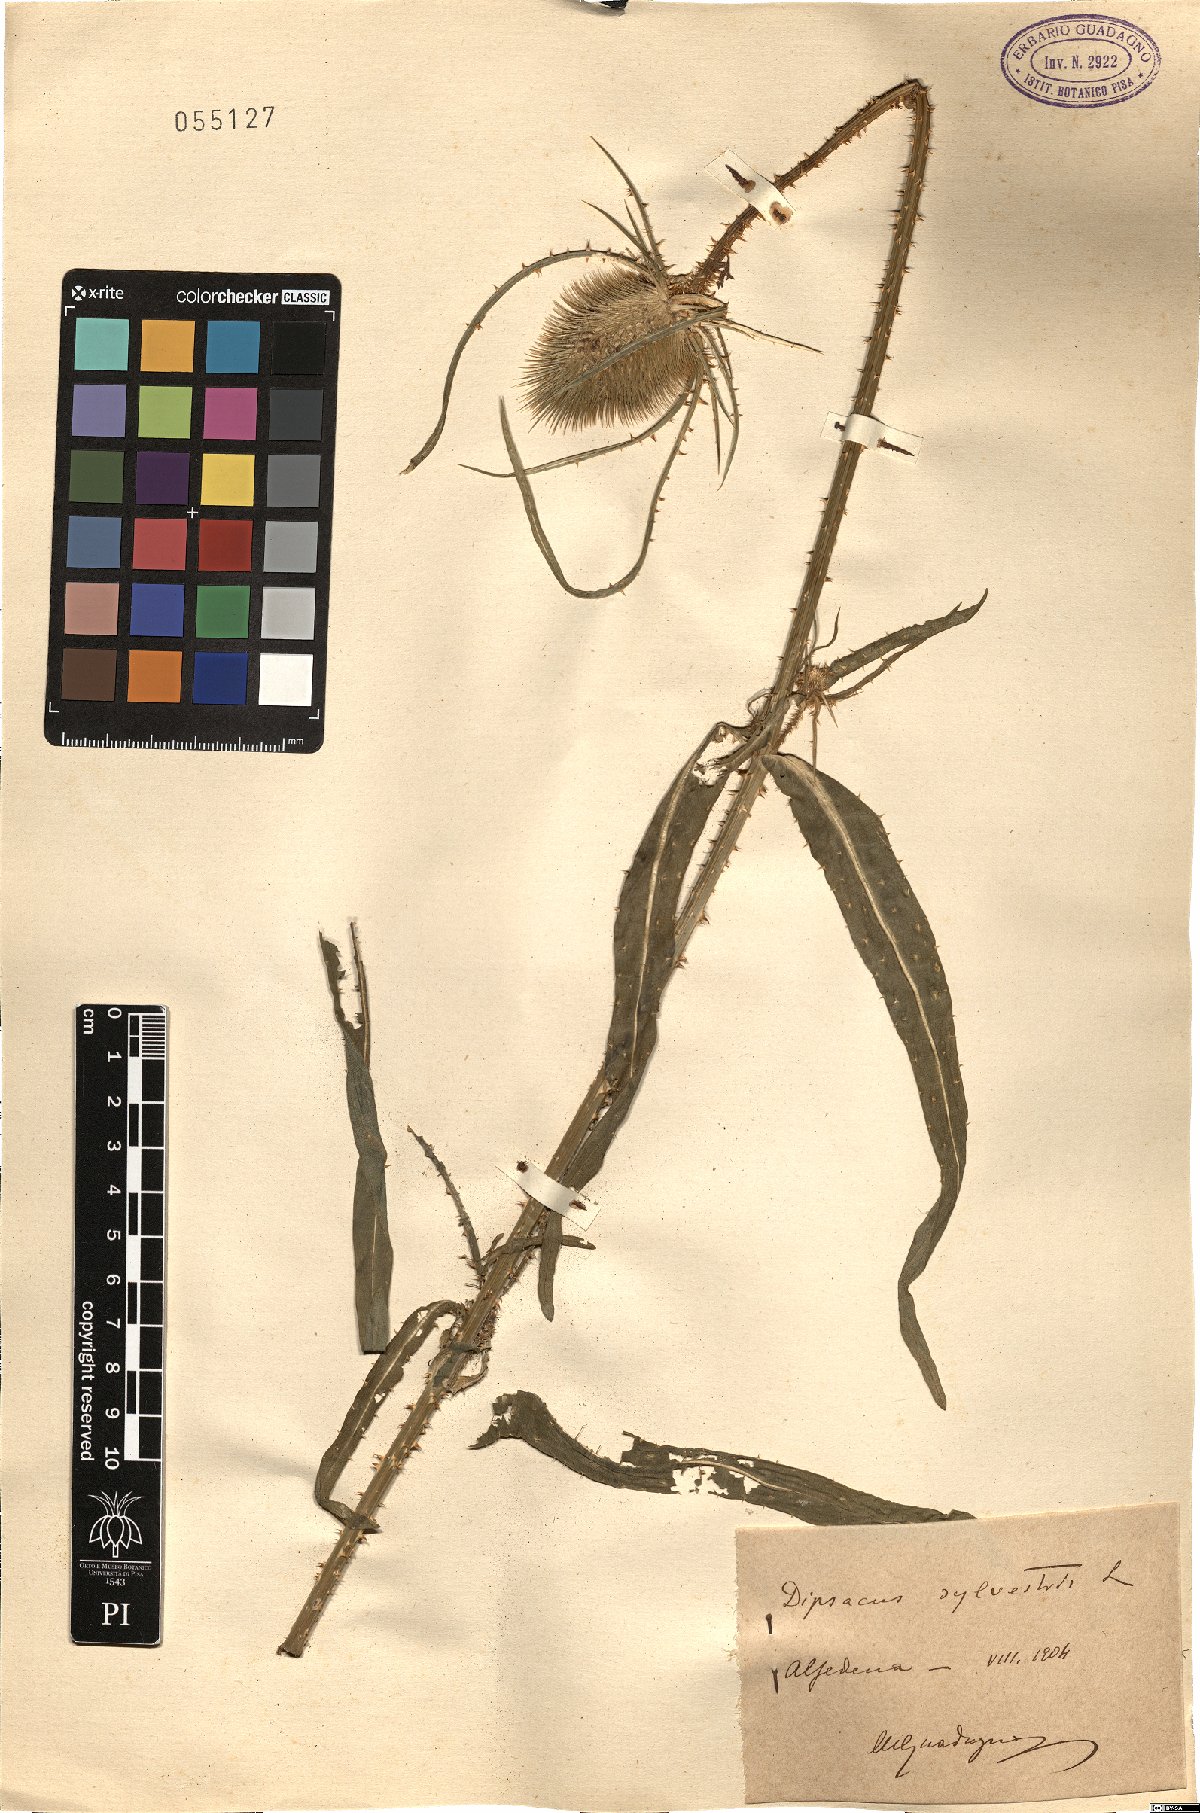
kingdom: Plantae
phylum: Tracheophyta
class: Magnoliopsida
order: Dipsacales
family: Caprifoliaceae
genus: Dipsacus
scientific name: Dipsacus fullonum
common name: Teasel
